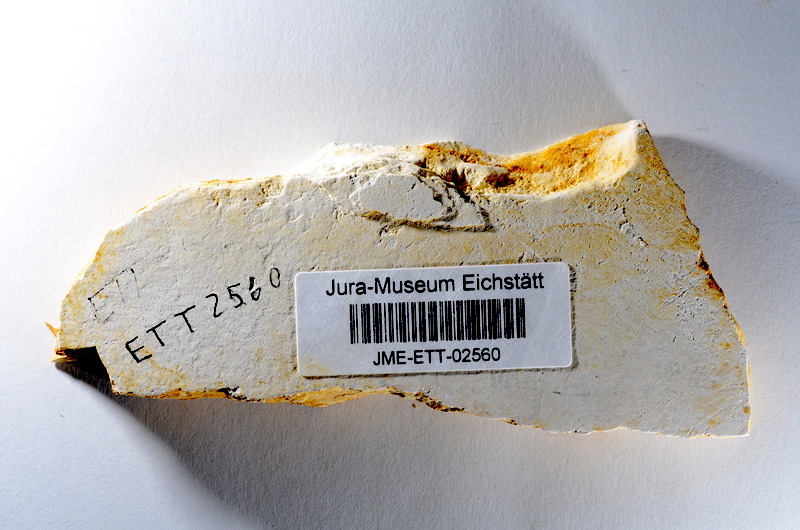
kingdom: Animalia
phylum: Chordata
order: Salmoniformes
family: Orthogonikleithridae
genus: Orthogonikleithrus
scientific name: Orthogonikleithrus hoelli
